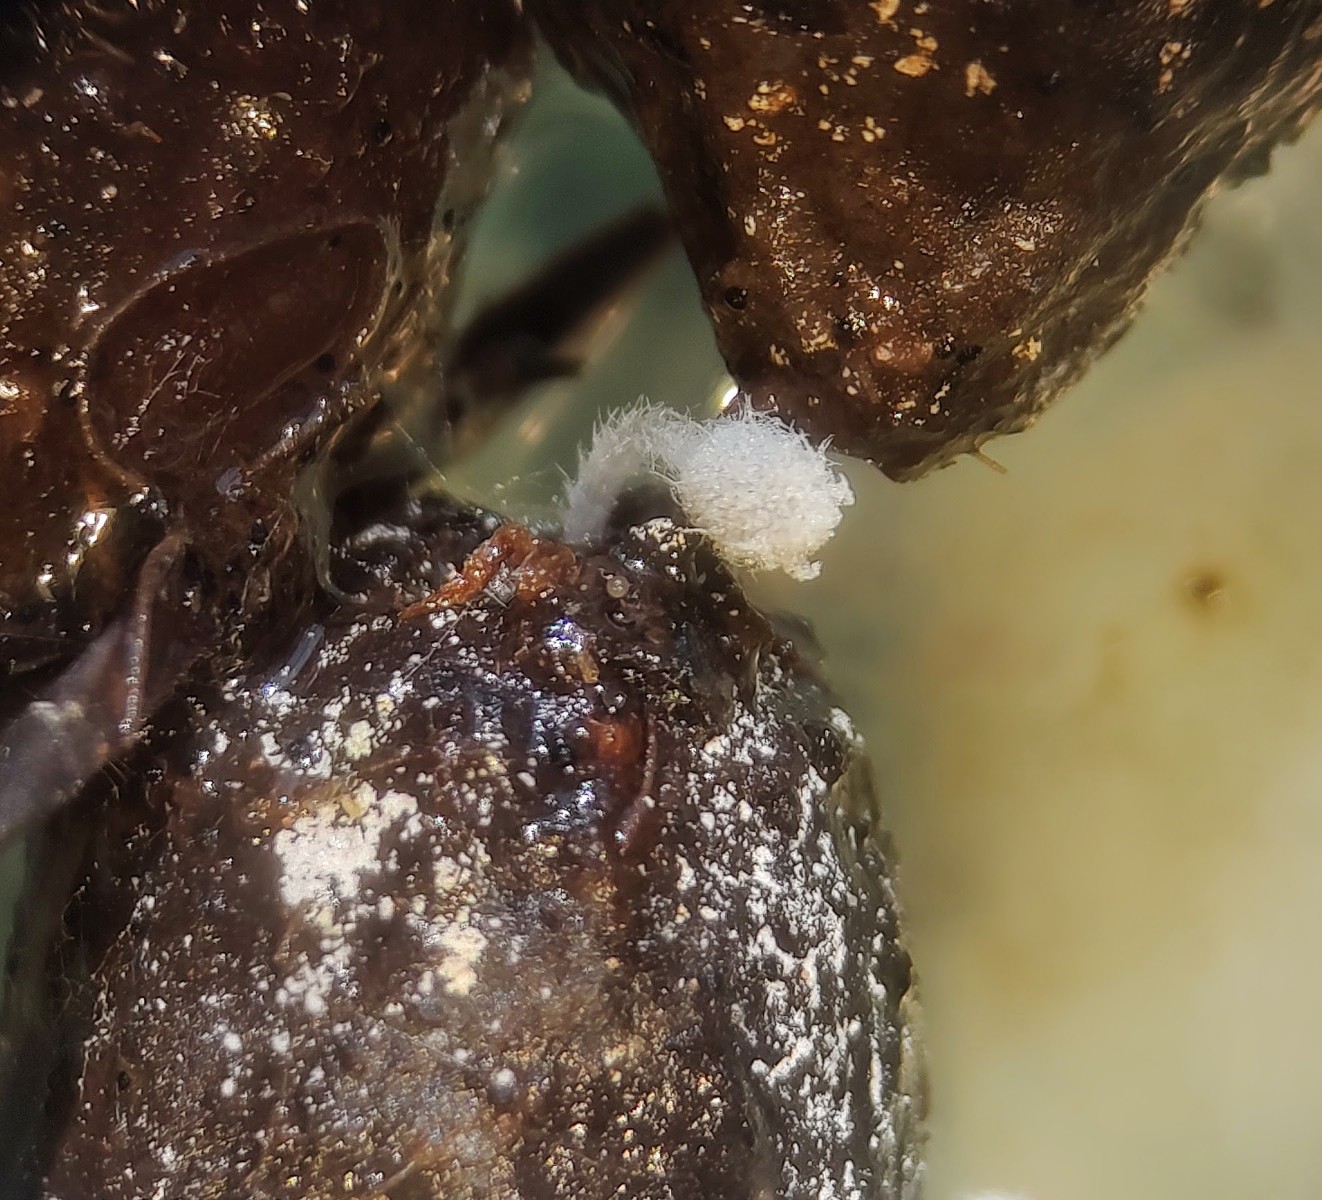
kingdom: Fungi
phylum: Basidiomycota
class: Agaricomycetes
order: Agaricales
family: Psathyrellaceae
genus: Coprinopsis
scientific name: Coprinopsis stercorea
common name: pjusket blækhat
